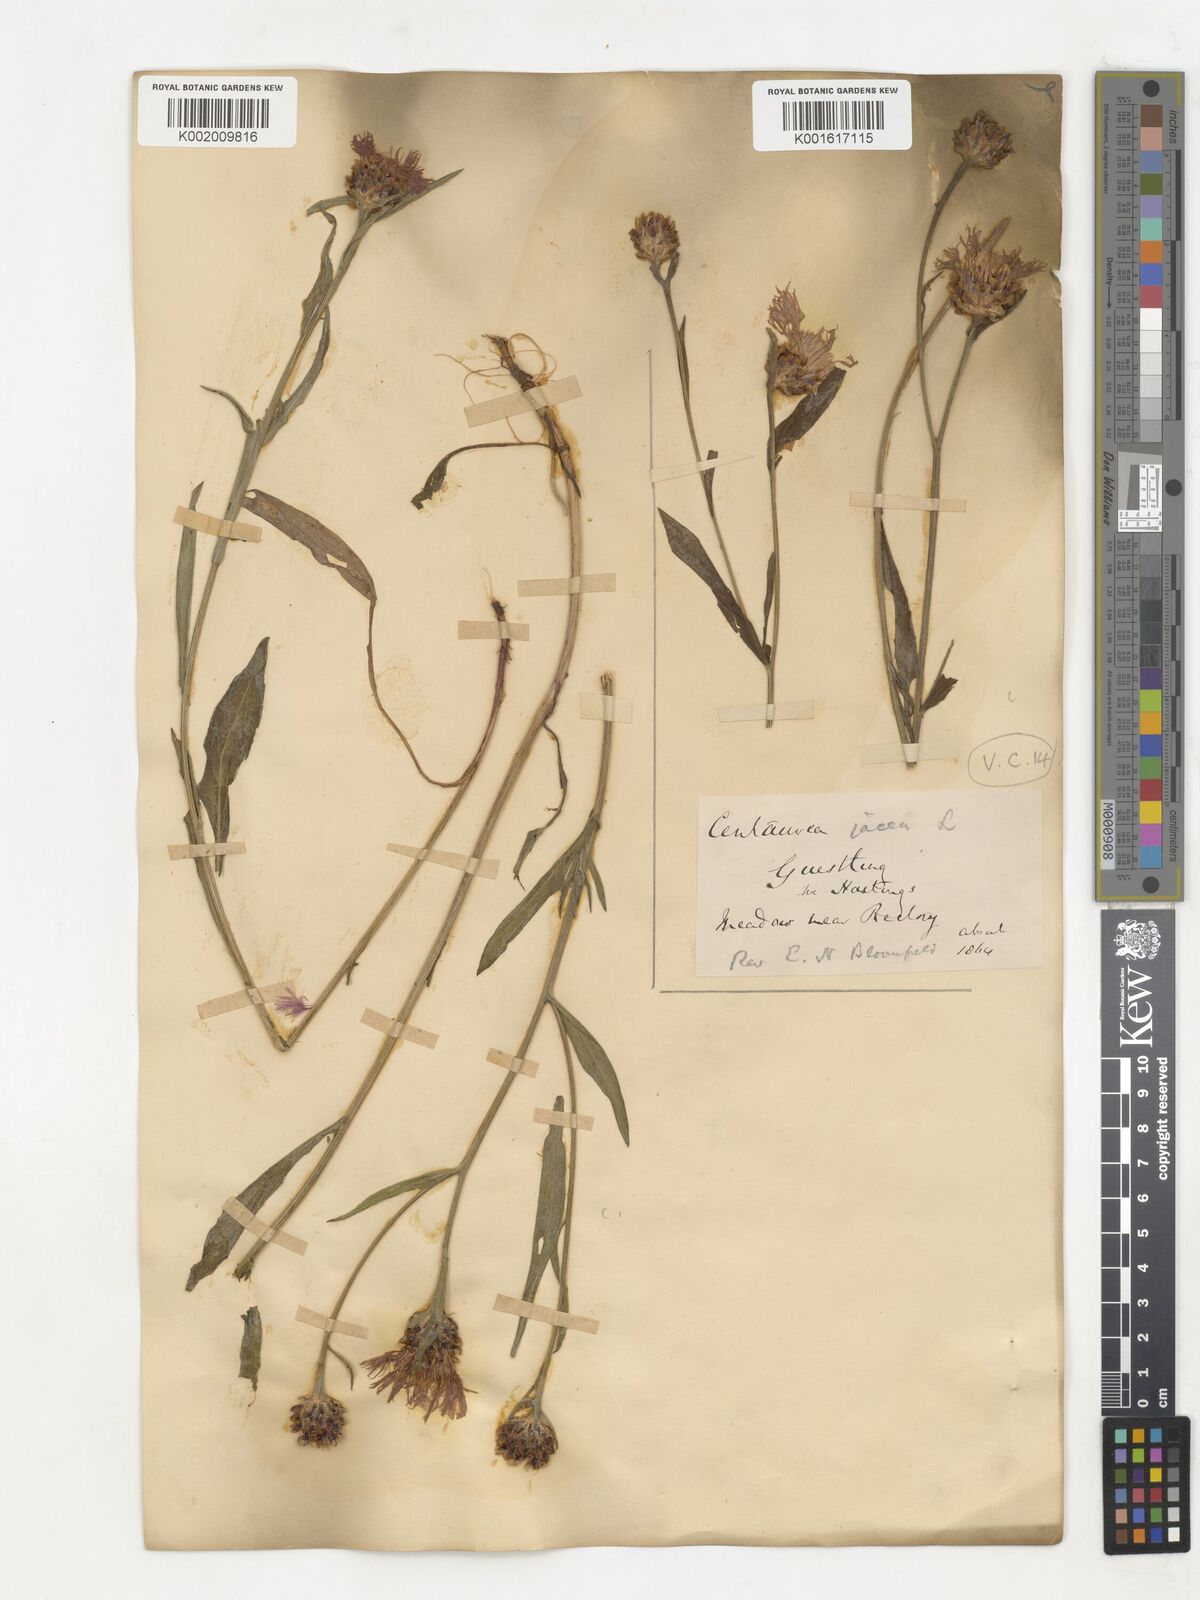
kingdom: Plantae
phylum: Tracheophyta
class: Magnoliopsida
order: Asterales
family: Asteraceae
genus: Centaurea
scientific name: Centaurea jacea
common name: Brown knapweed
